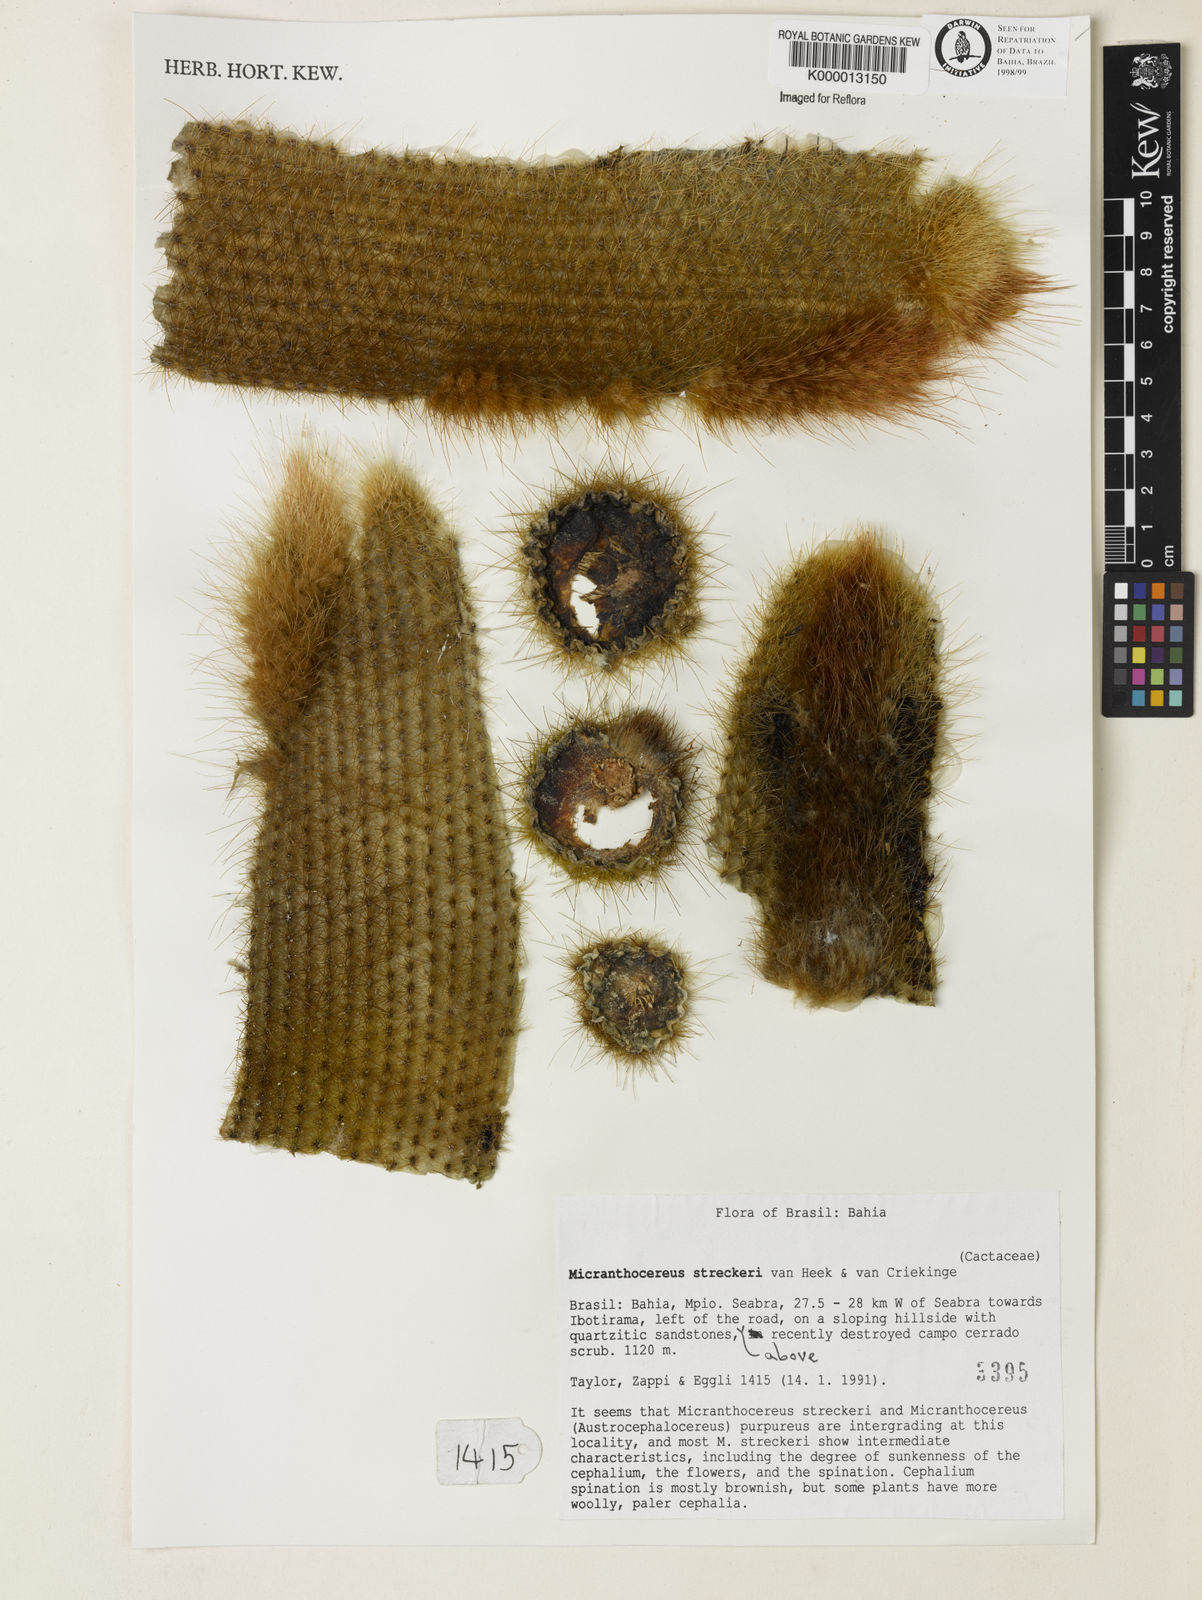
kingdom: Plantae
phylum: Tracheophyta
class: Magnoliopsida
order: Caryophyllales
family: Cactaceae
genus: Micranthocereus
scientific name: Micranthocereus streckeri
